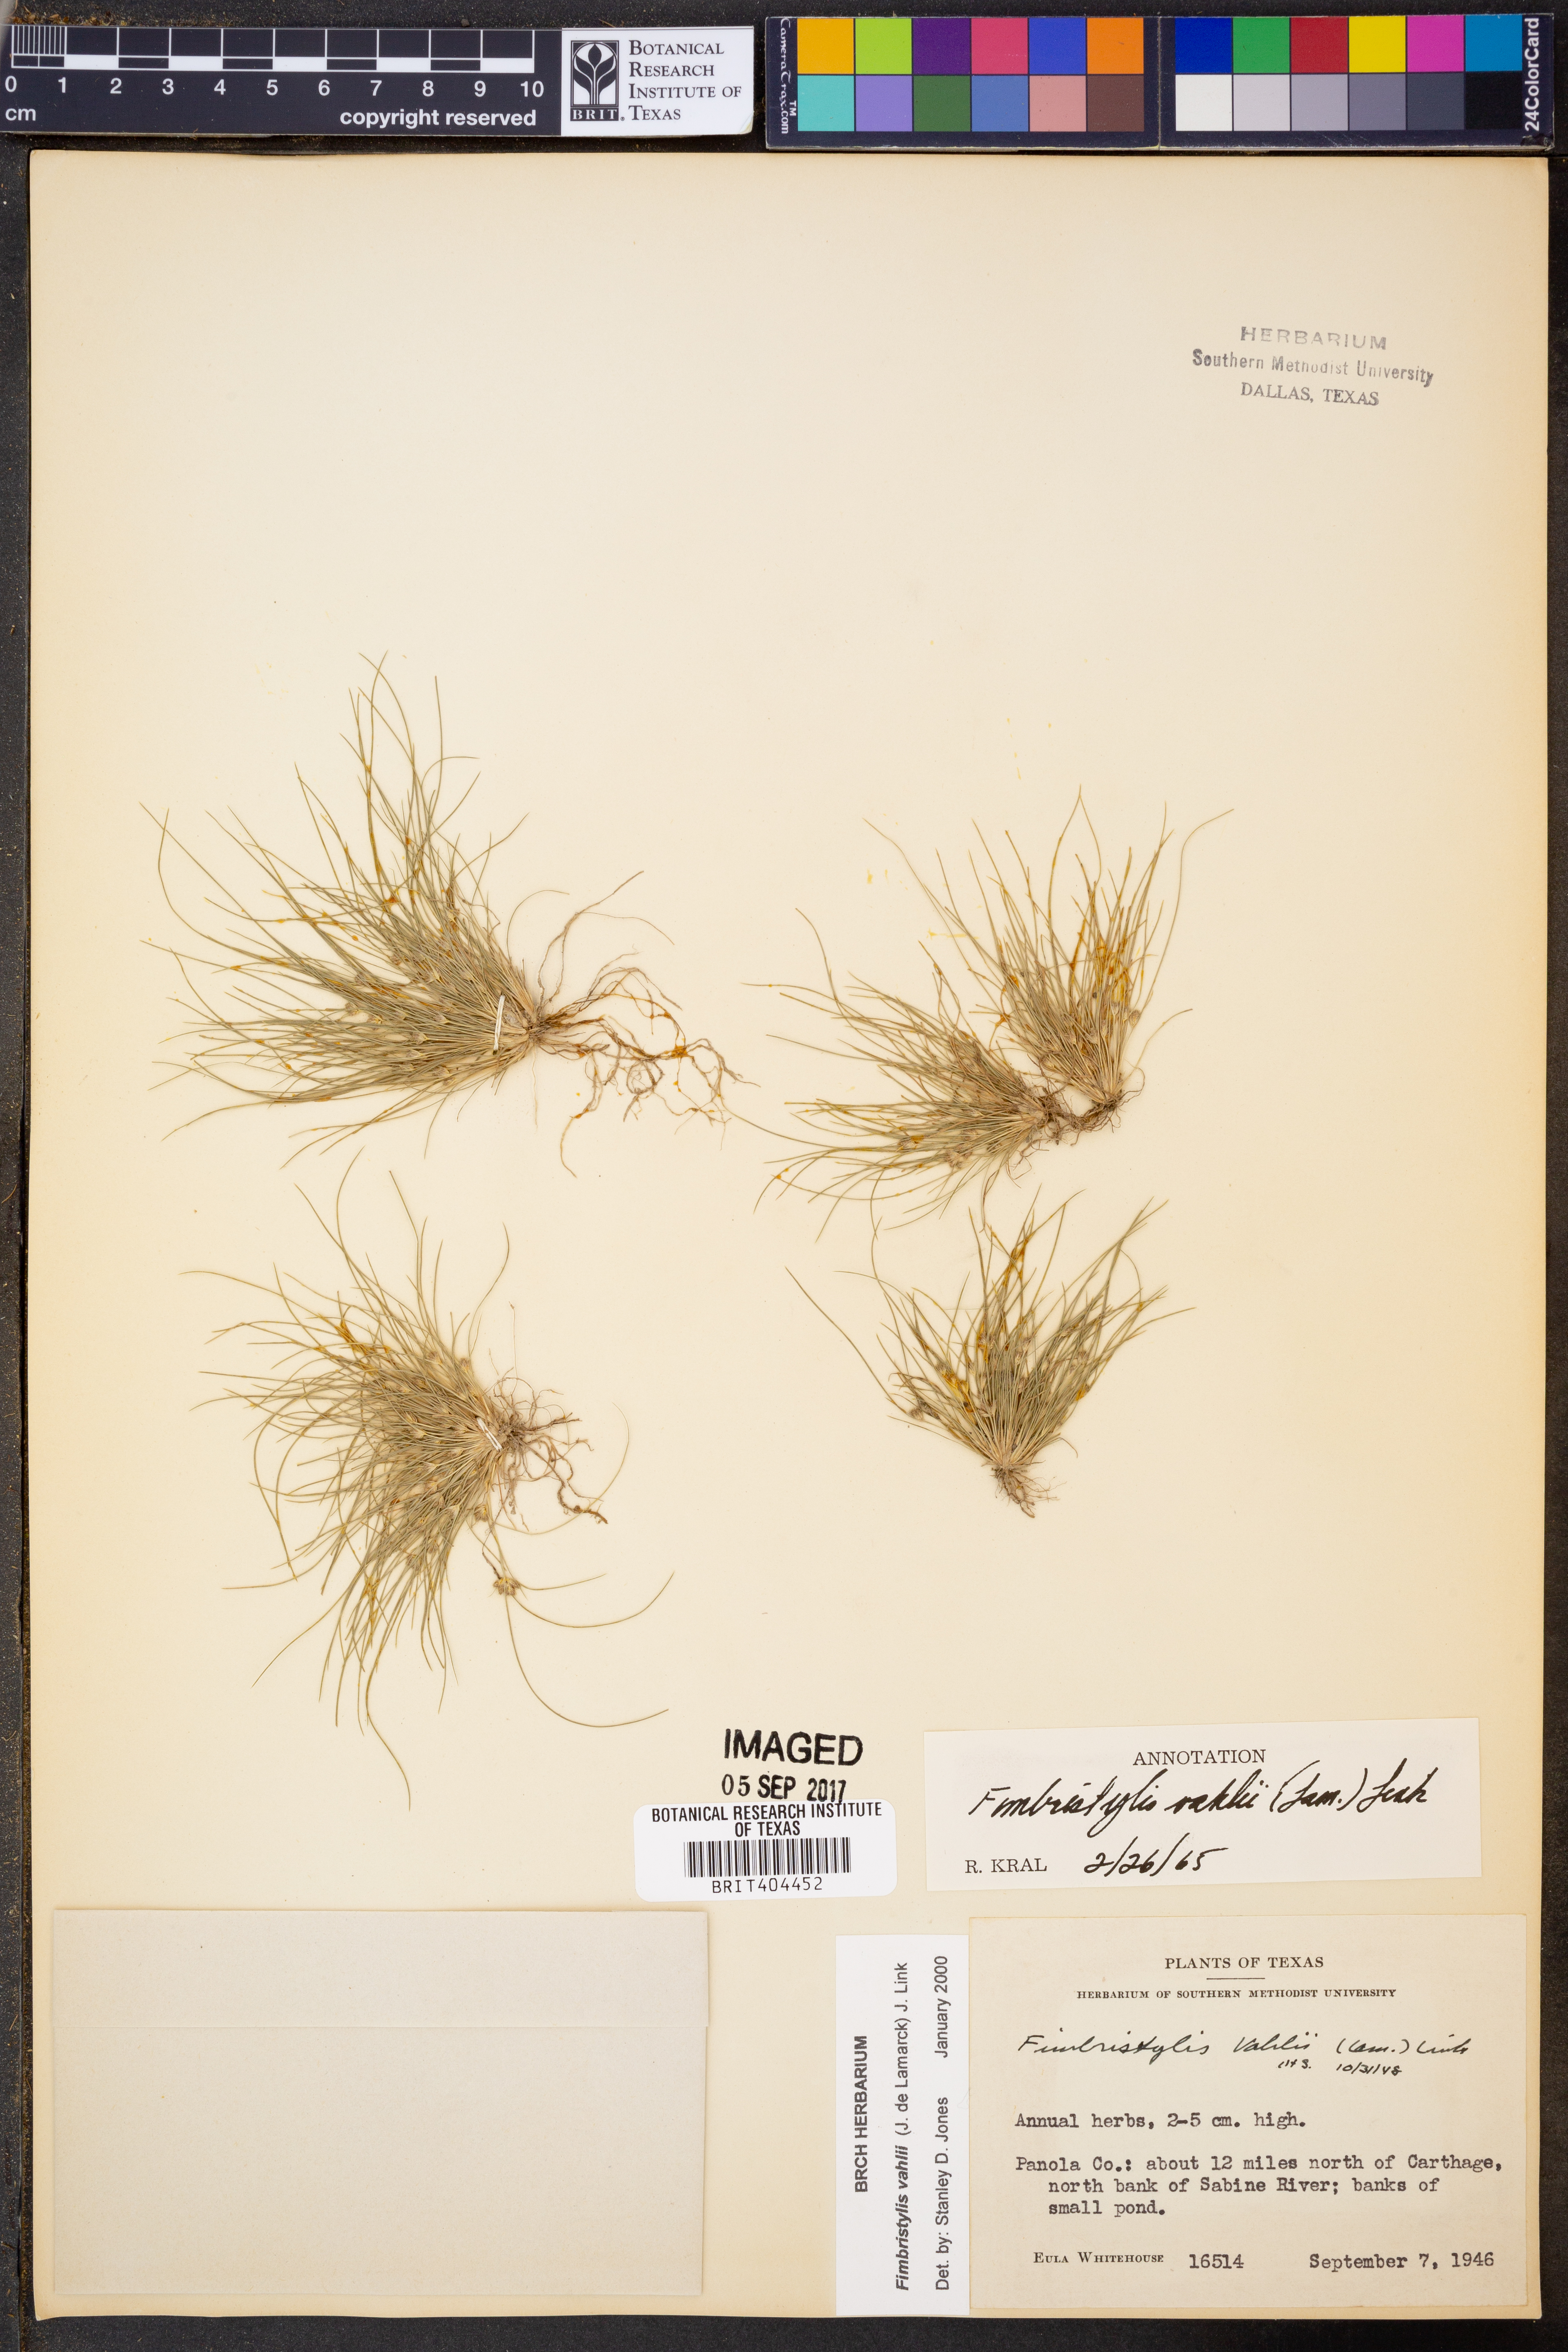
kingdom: Plantae
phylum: Tracheophyta
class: Liliopsida
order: Poales
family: Cyperaceae
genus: Fimbristylis
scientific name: Fimbristylis vahlii
